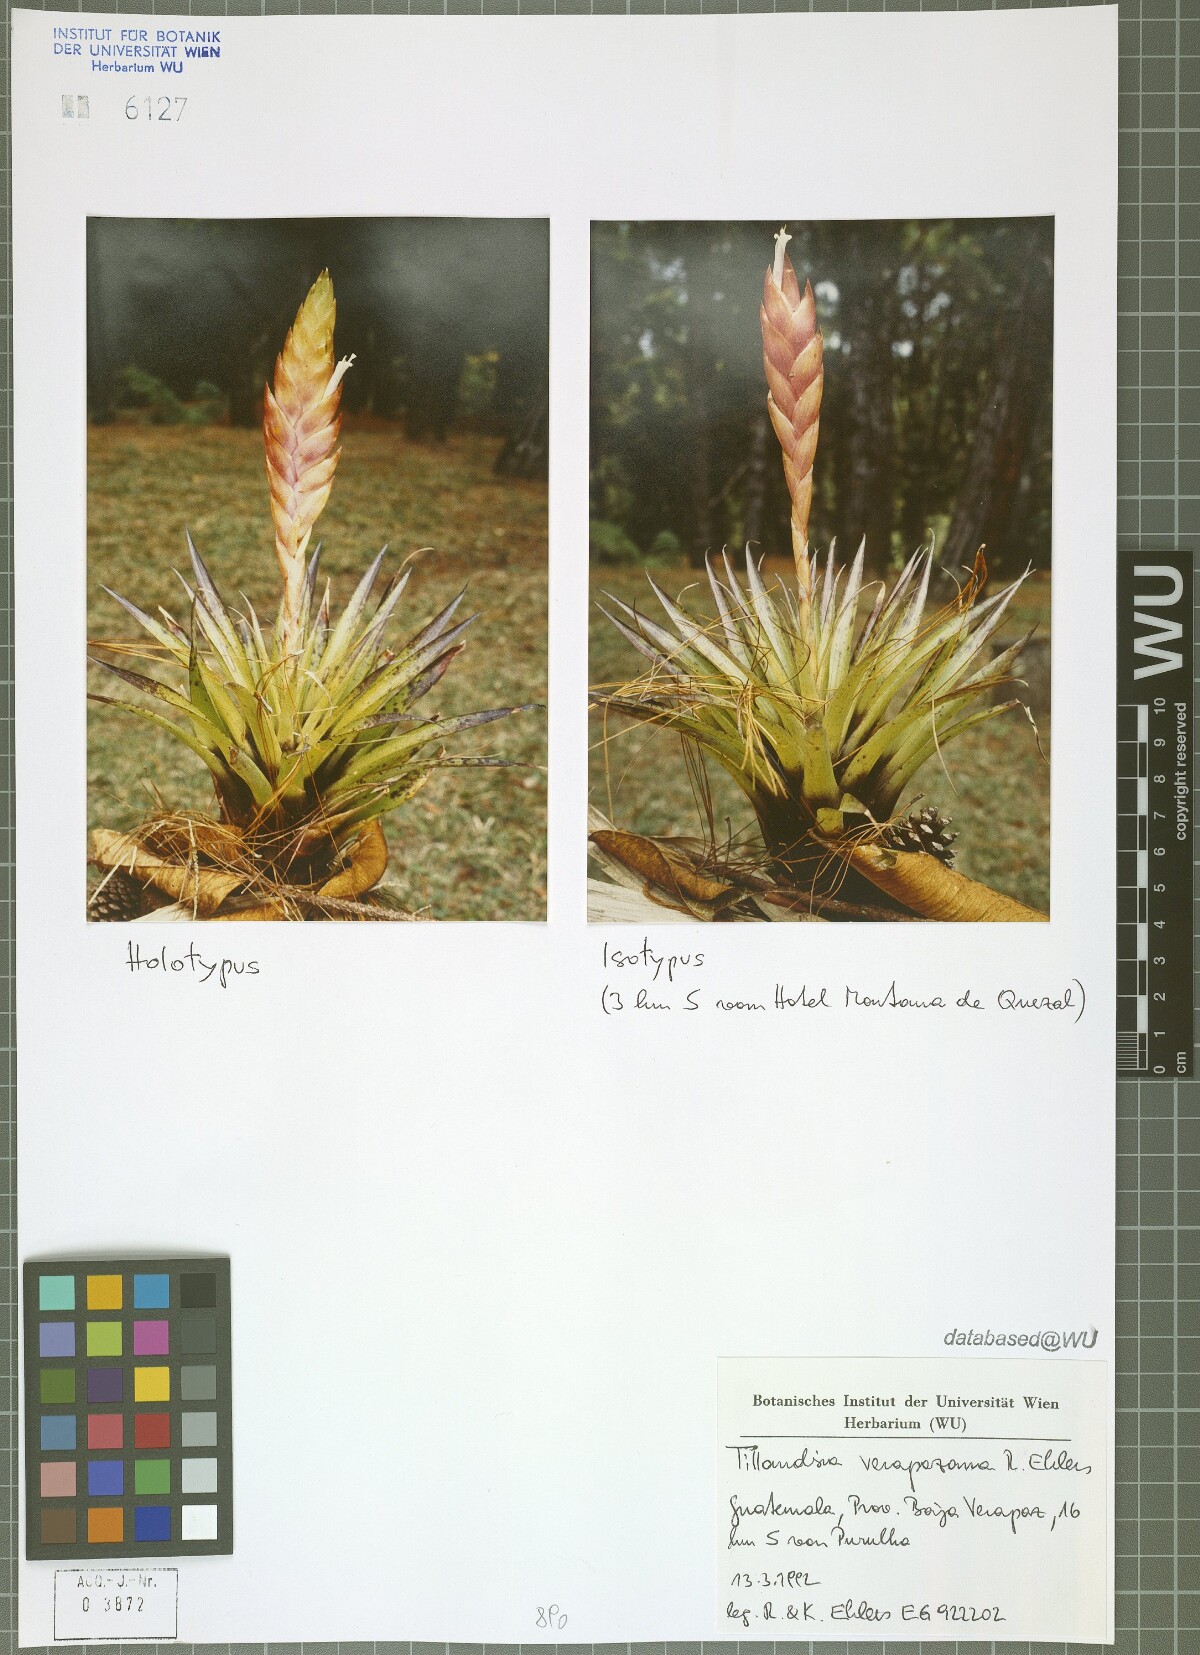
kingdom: Plantae
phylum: Tracheophyta
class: Liliopsida
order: Poales
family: Bromeliaceae
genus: Tillandsia
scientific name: Tillandsia verapazana
